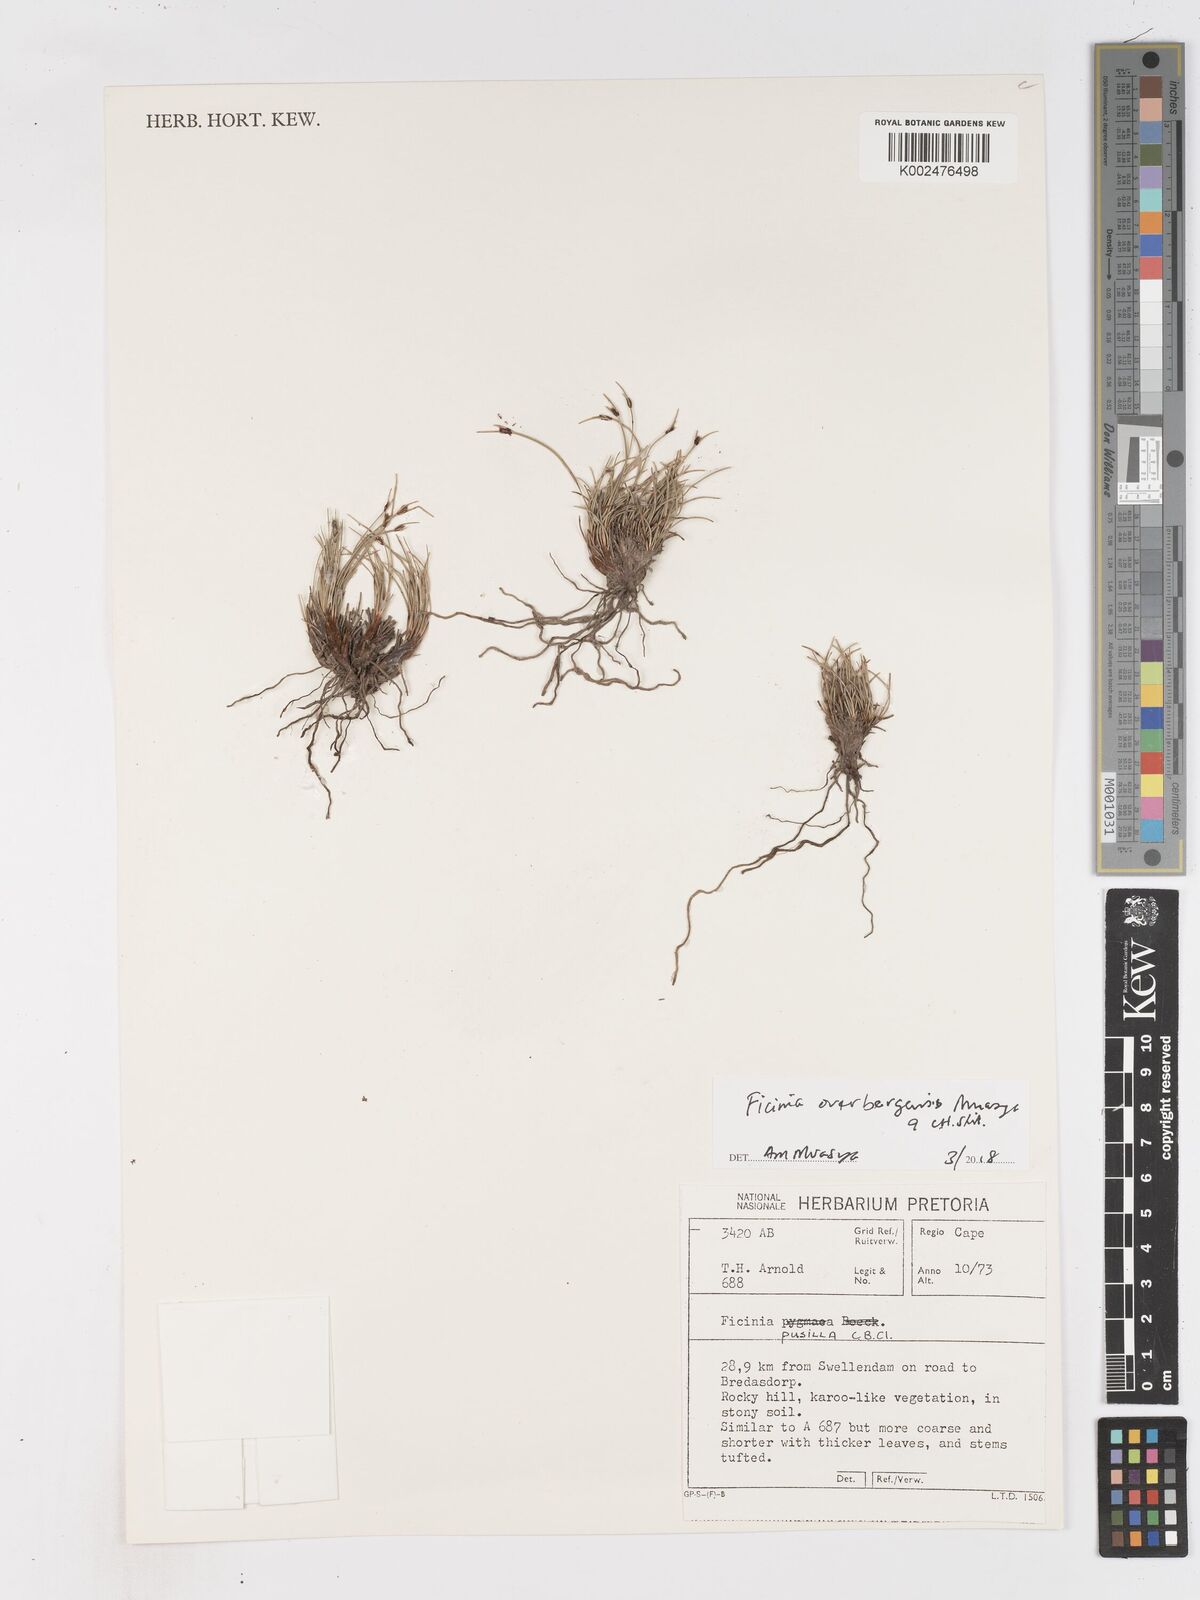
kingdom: Plantae
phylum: Tracheophyta
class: Liliopsida
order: Poales
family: Cyperaceae
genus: Ficinia
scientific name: Ficinia overbergensis
